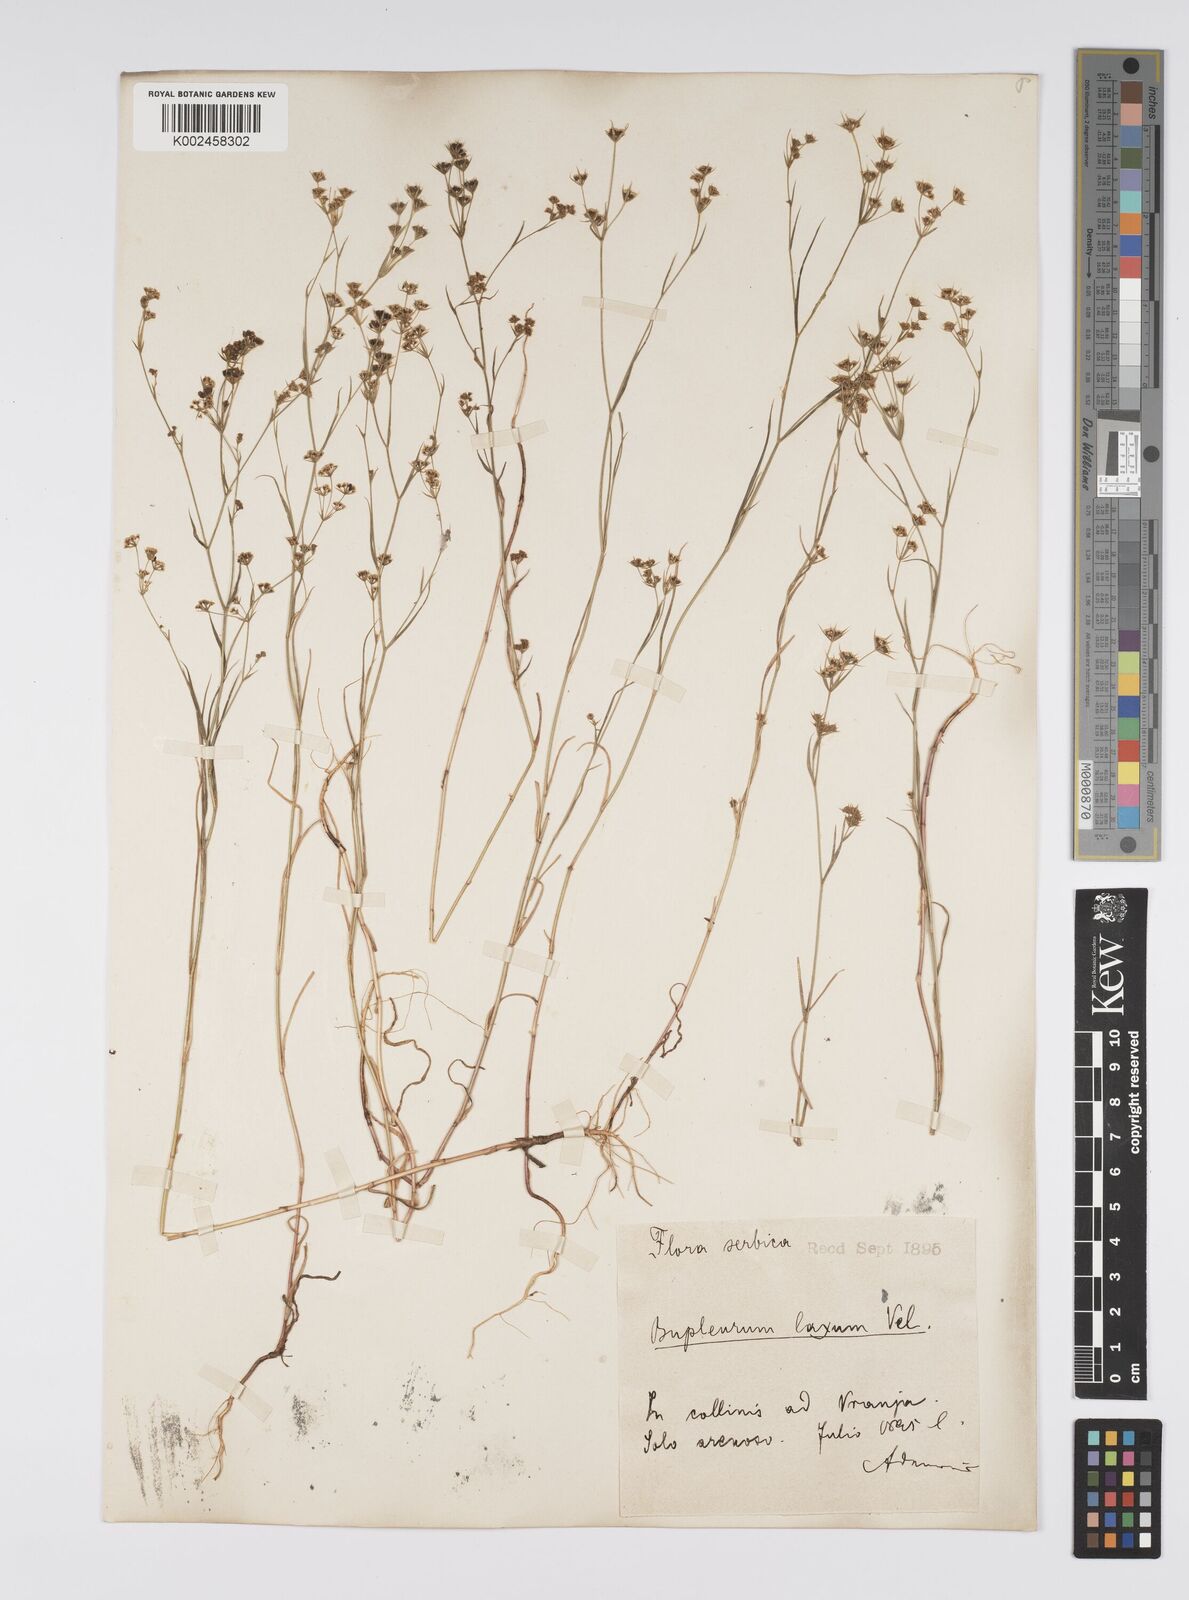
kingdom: Plantae
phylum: Tracheophyta
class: Magnoliopsida
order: Apiales
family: Apiaceae
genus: Bupleurum
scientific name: Bupleurum commutatum
